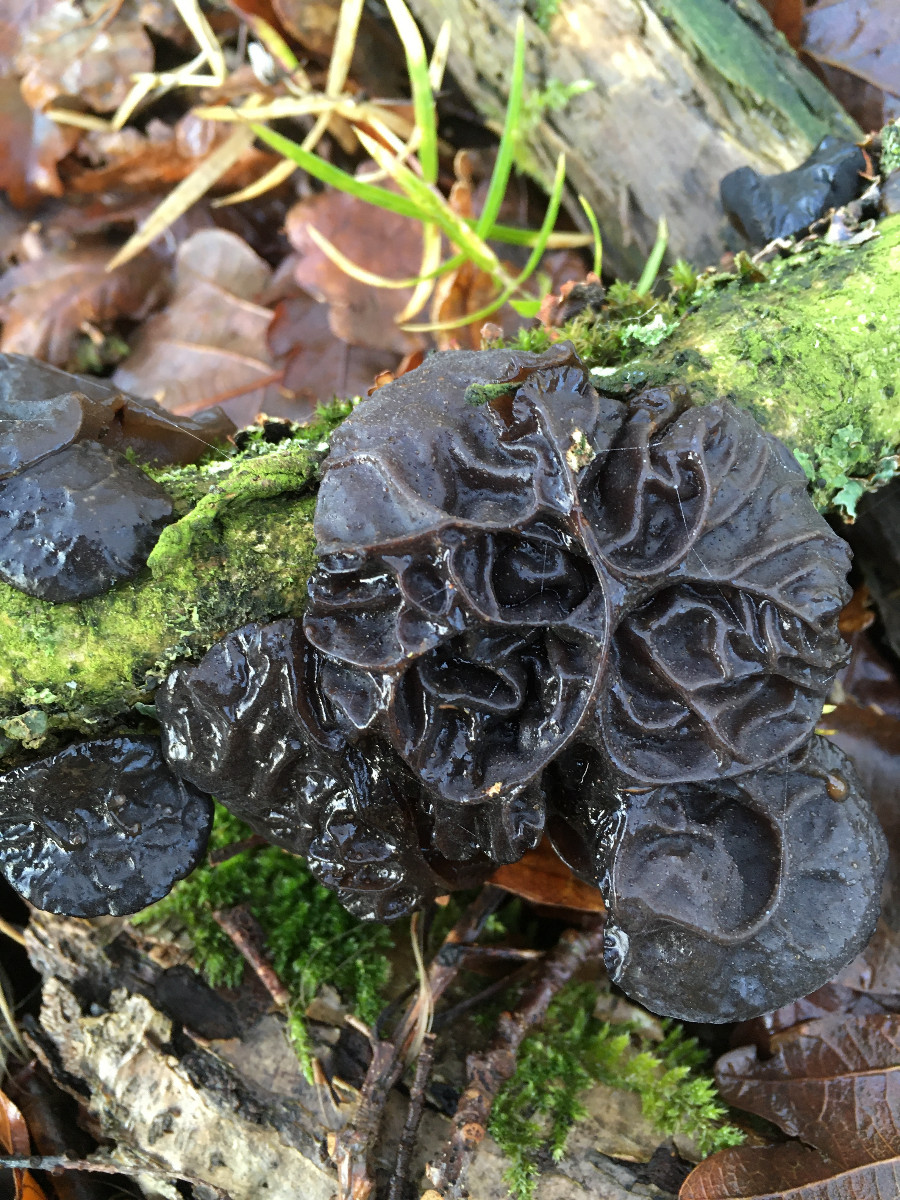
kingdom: Fungi
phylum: Basidiomycota
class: Agaricomycetes
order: Auriculariales
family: Auriculariaceae
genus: Exidia
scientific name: Exidia glandulosa
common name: ege-bævretop
